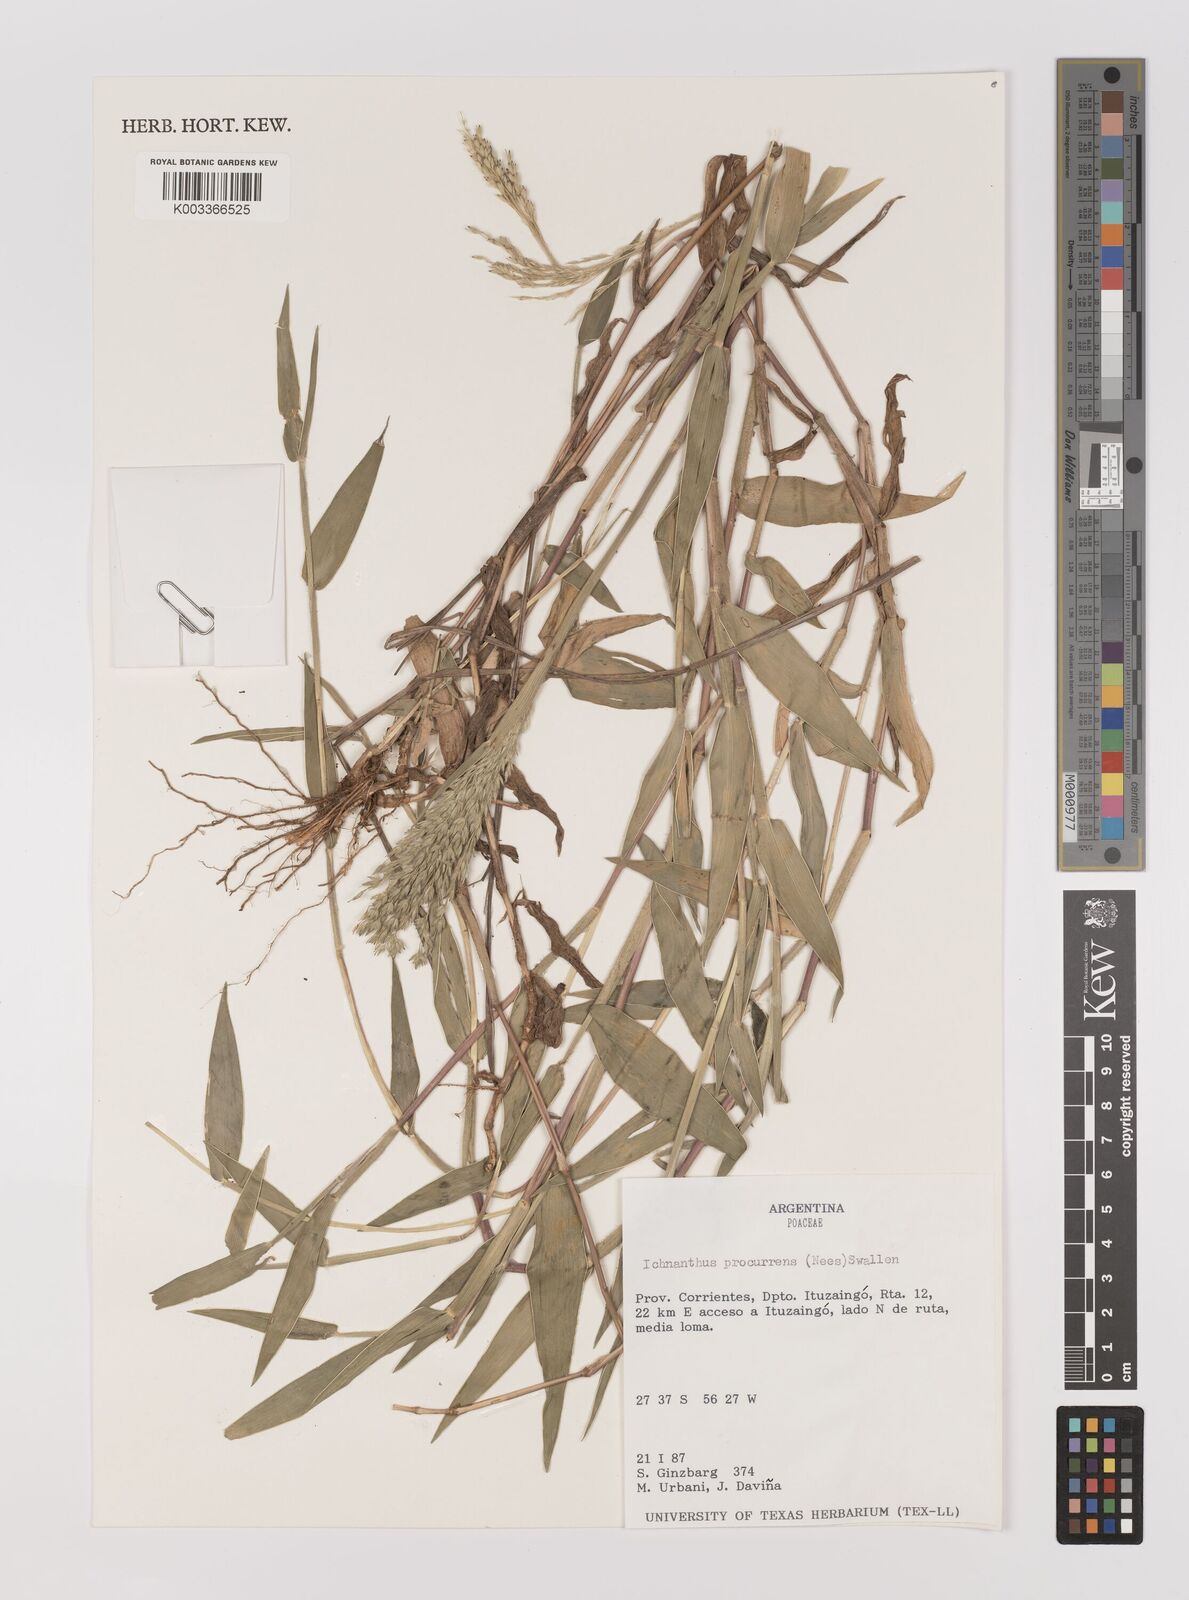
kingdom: Plantae
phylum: Tracheophyta
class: Liliopsida
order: Poales
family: Poaceae
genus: Oedochloa
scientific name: Oedochloa procurrens
